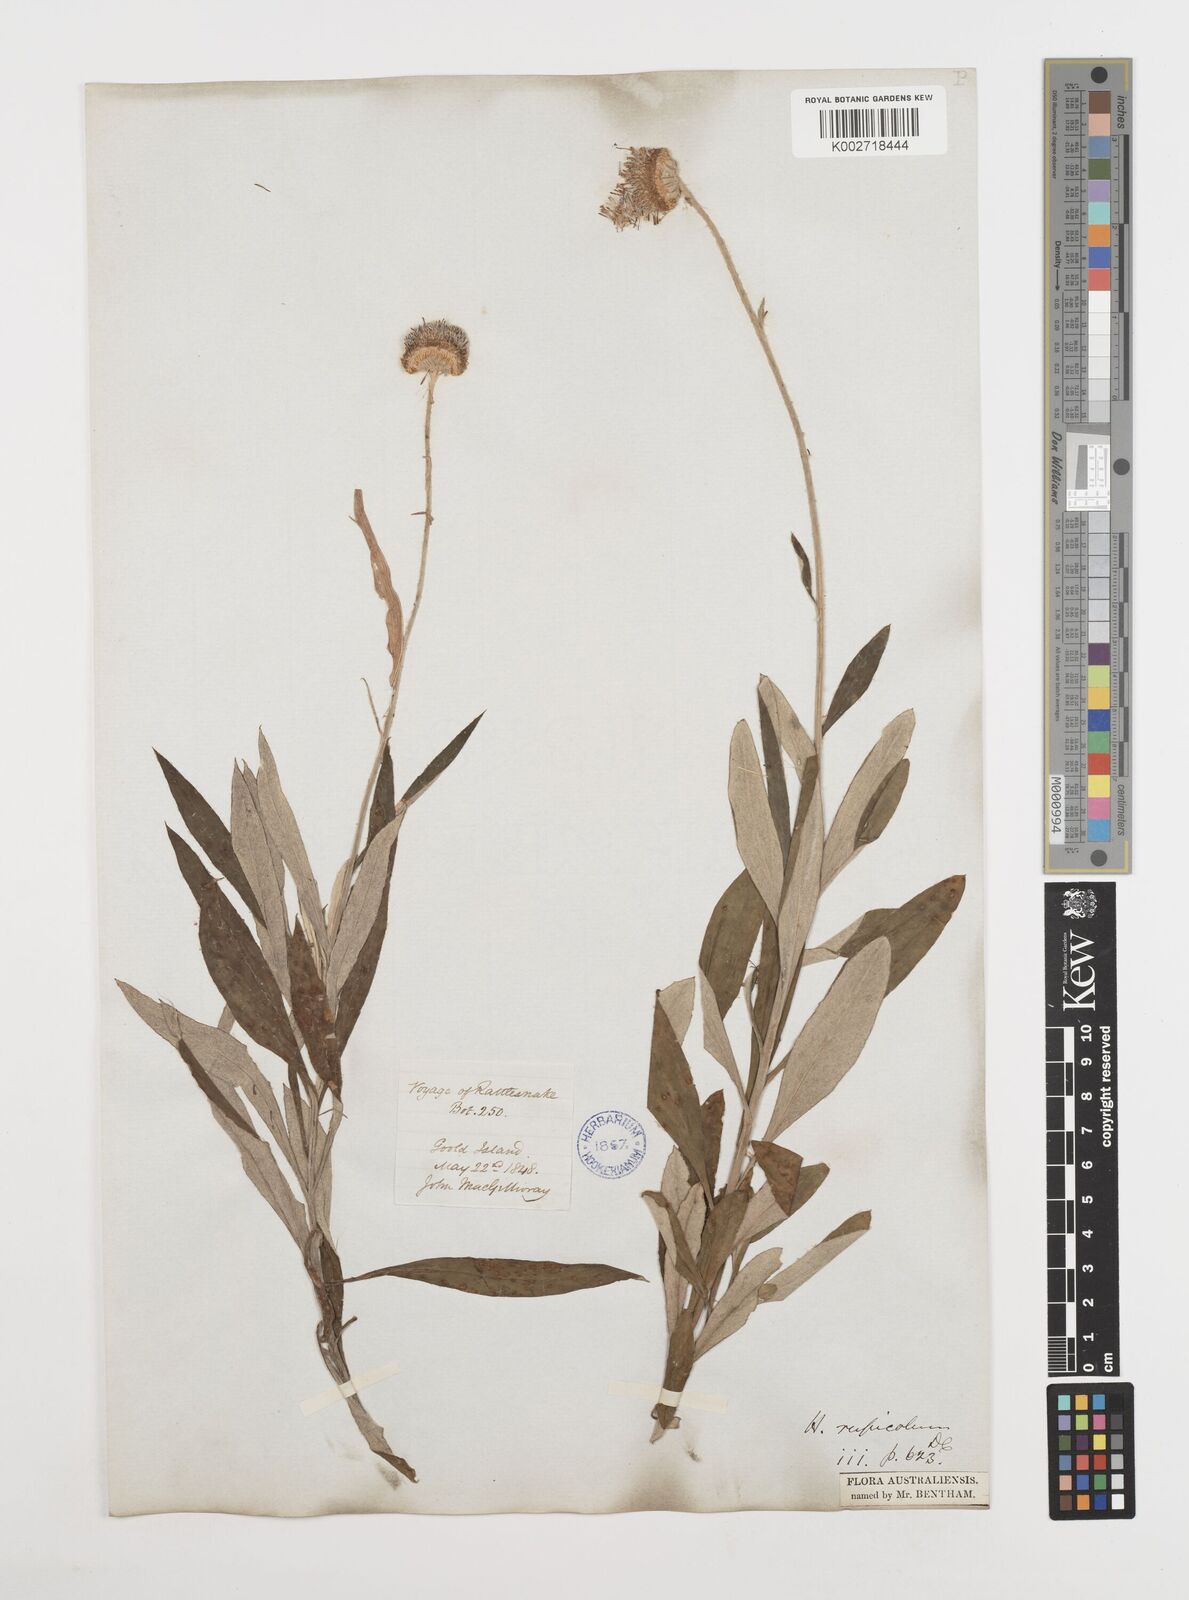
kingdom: Plantae
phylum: Tracheophyta
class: Magnoliopsida
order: Asterales
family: Asteraceae
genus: Coronidium
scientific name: Coronidium rupicola
